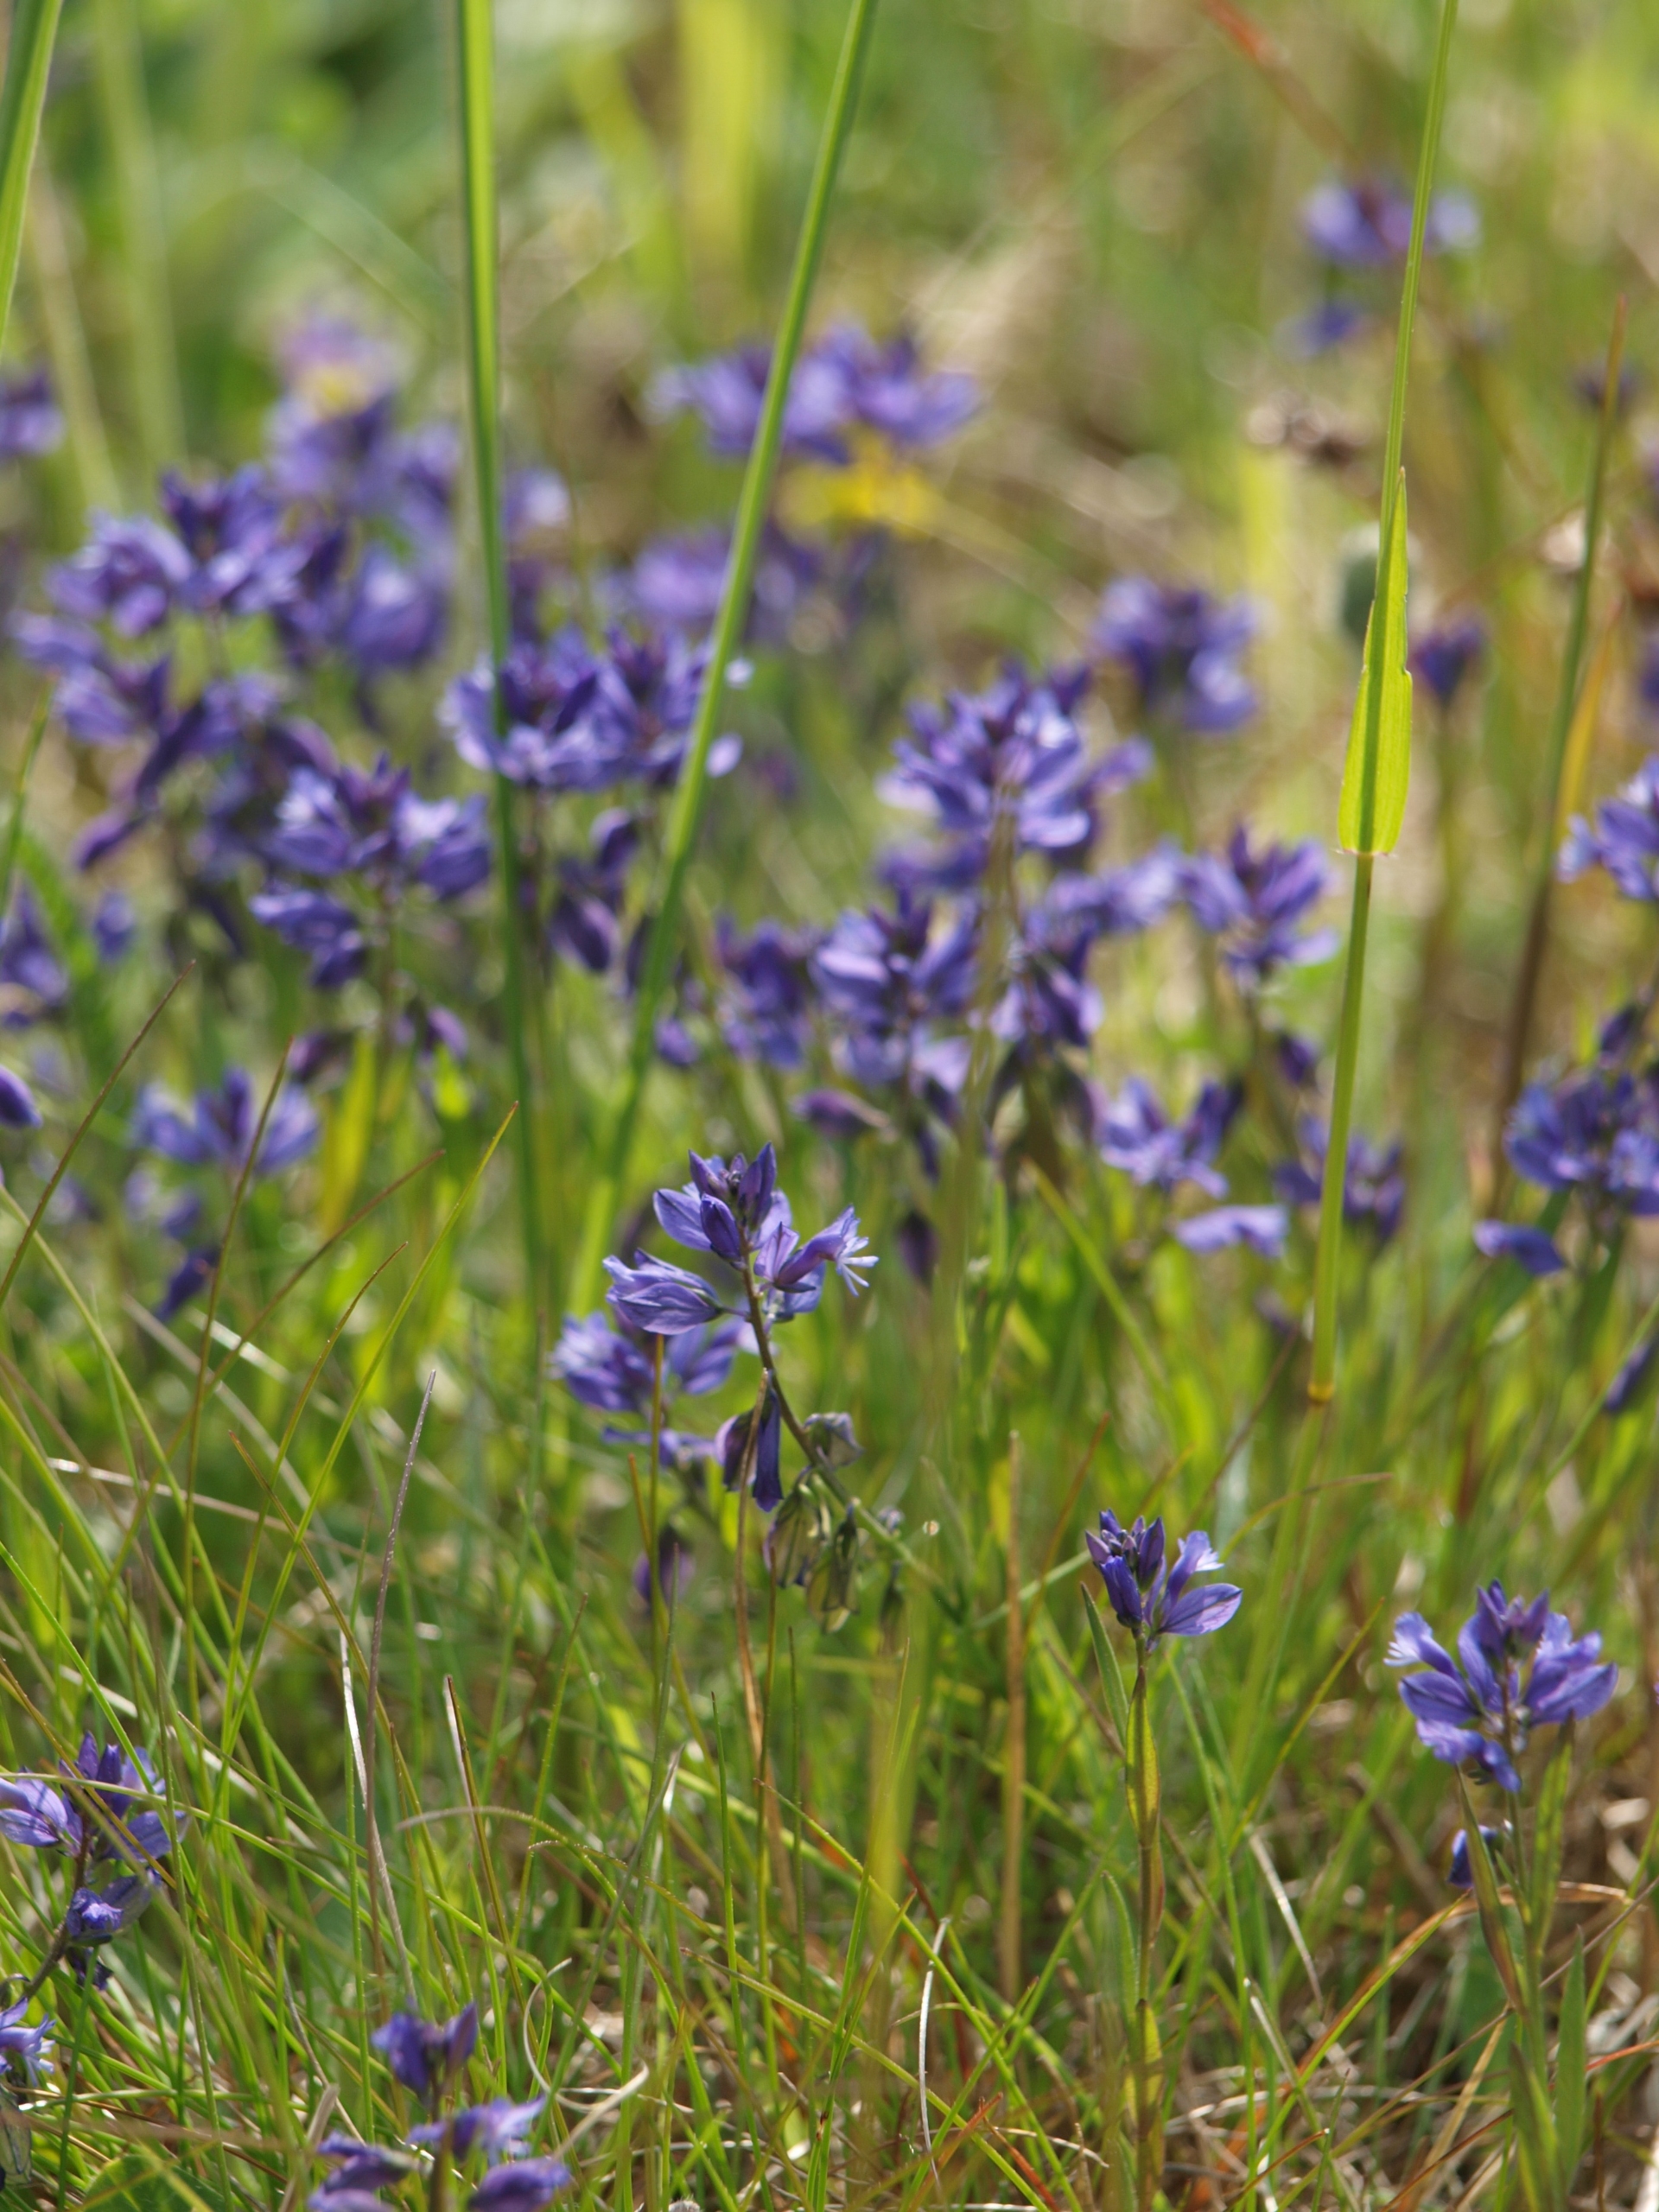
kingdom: Plantae
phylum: Tracheophyta
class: Magnoliopsida
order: Fabales
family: Polygalaceae
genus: Polygala
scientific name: Polygala vulgaris
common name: Almindelig mælkeurt
